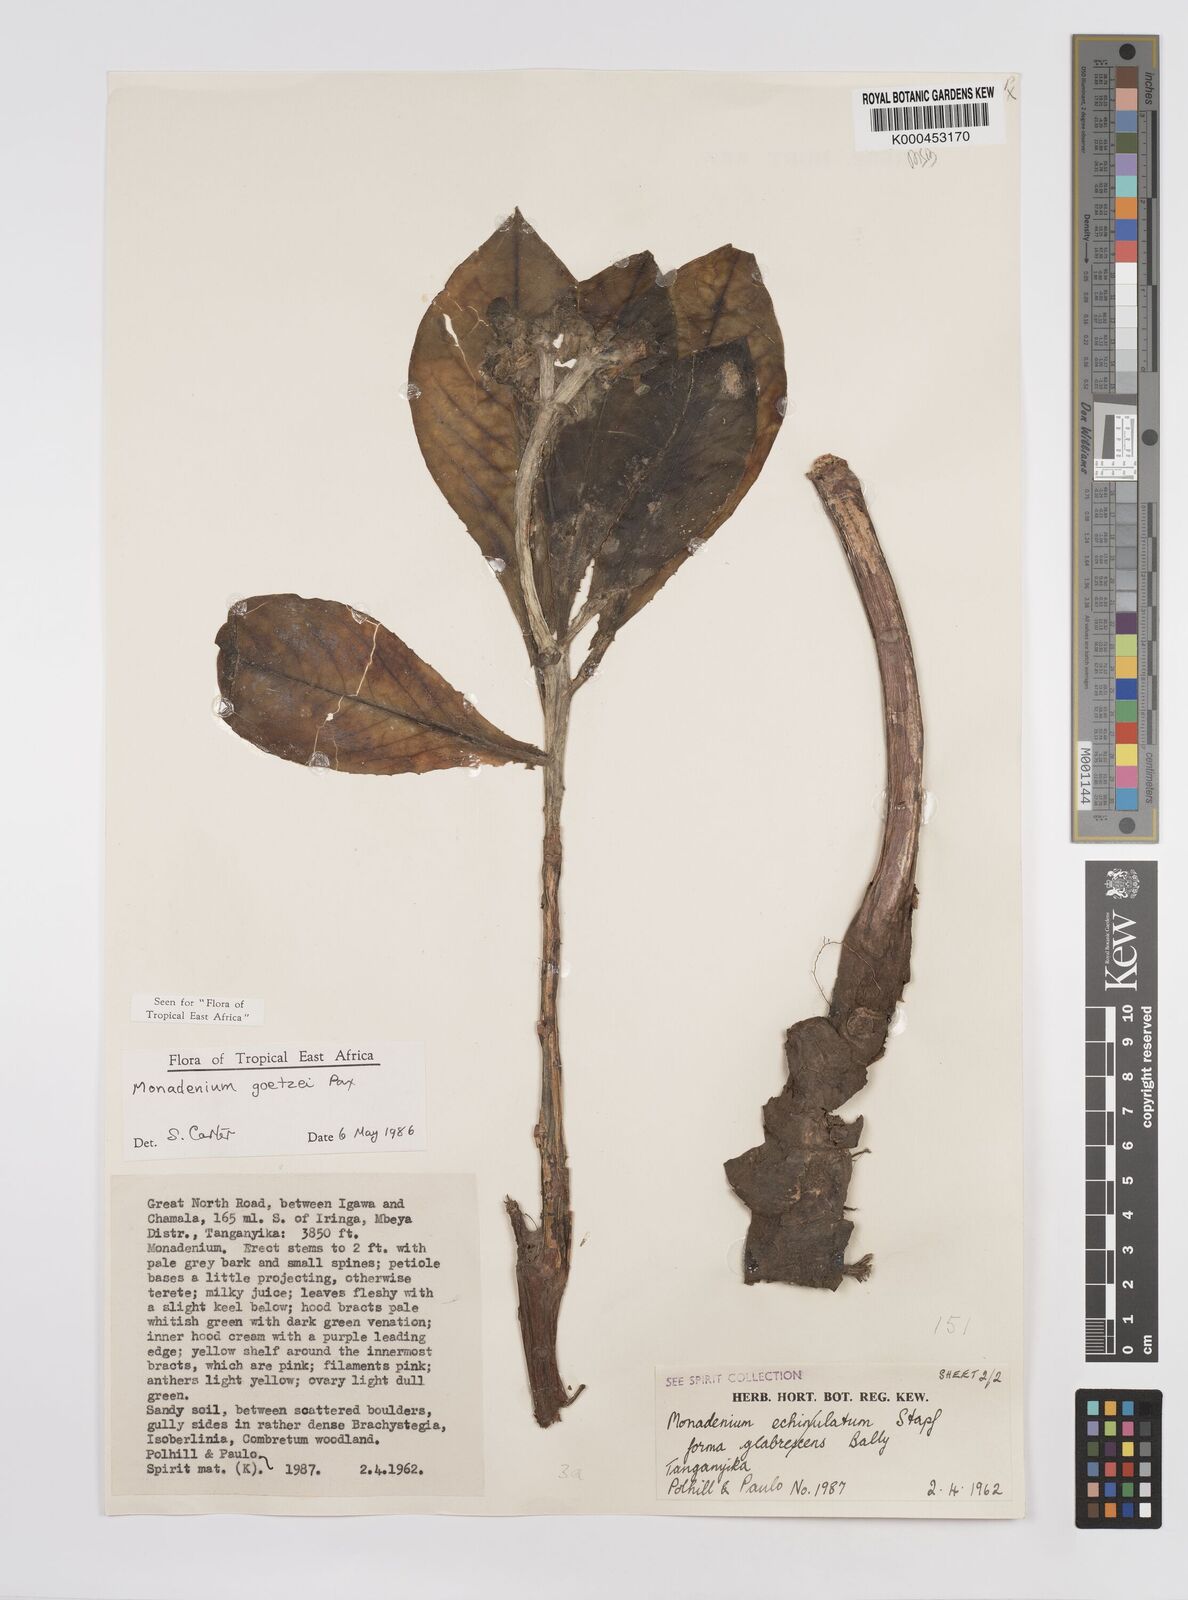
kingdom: Plantae
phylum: Tracheophyta
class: Magnoliopsida
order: Malpighiales
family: Euphorbiaceae
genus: Euphorbia
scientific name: Euphorbia neogoetzei
